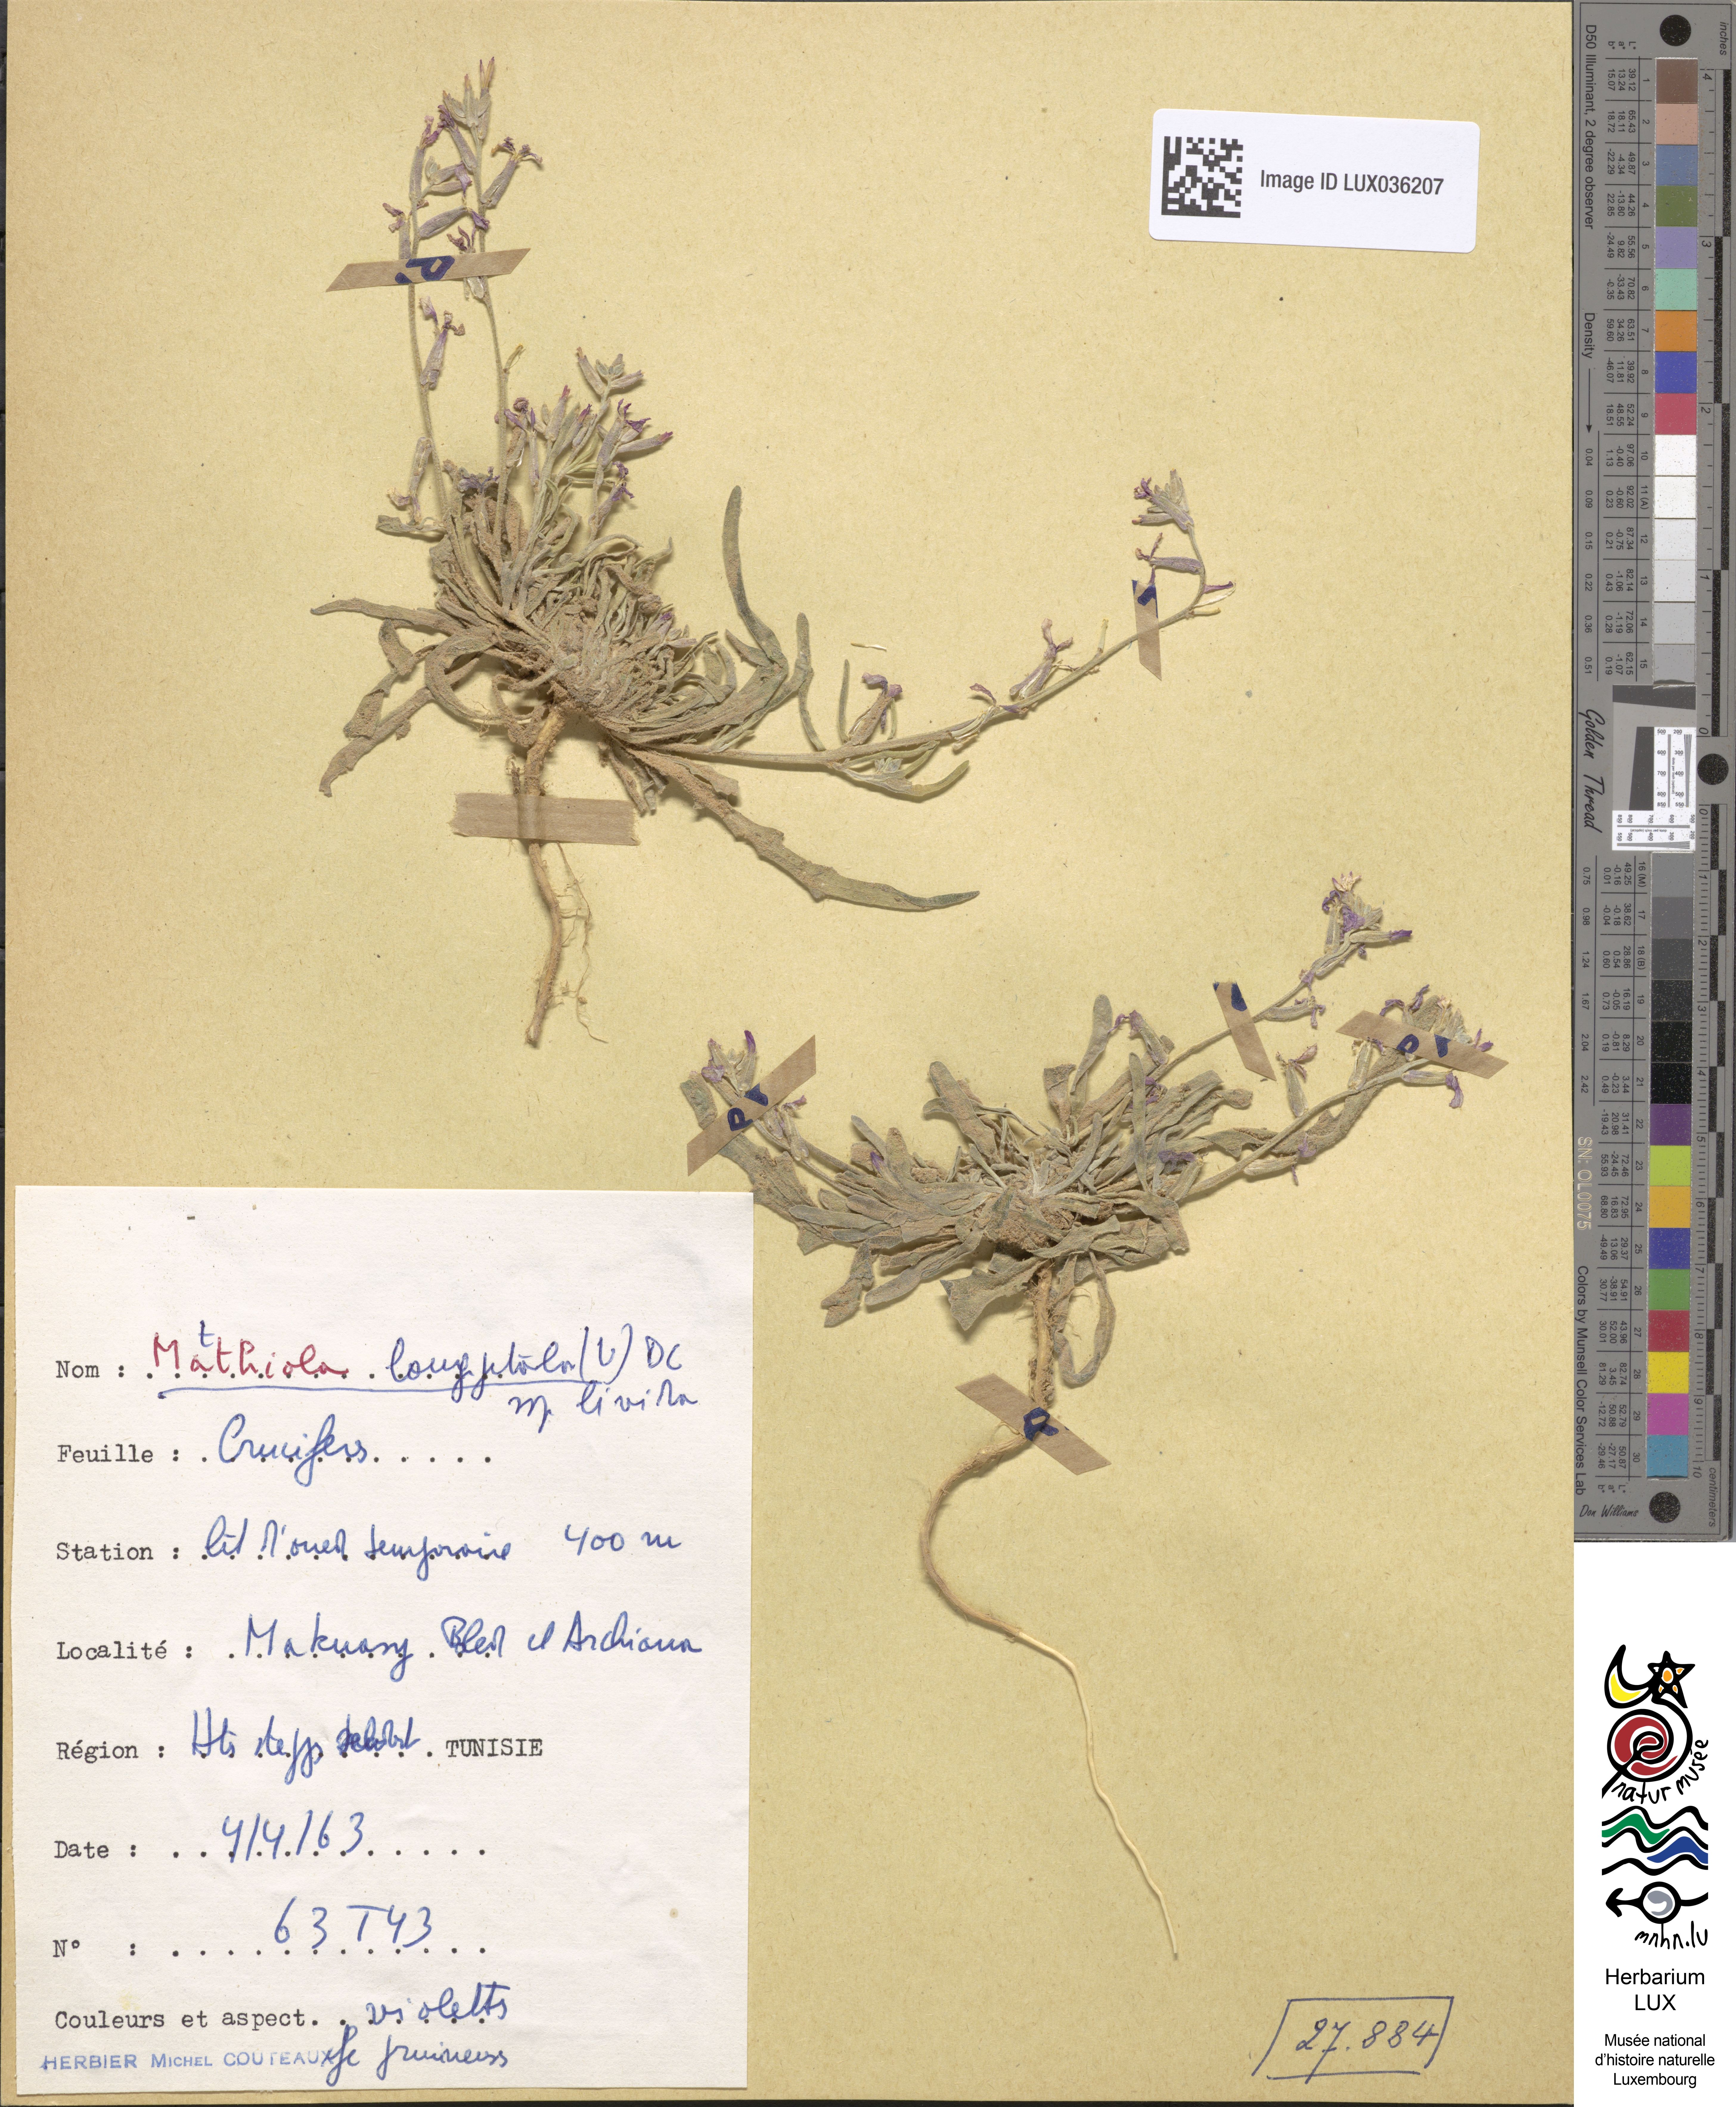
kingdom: Plantae
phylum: Tracheophyta
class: Magnoliopsida
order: Brassicales
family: Brassicaceae
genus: Matthiola
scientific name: Matthiola longipetala
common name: Night-scented stock
